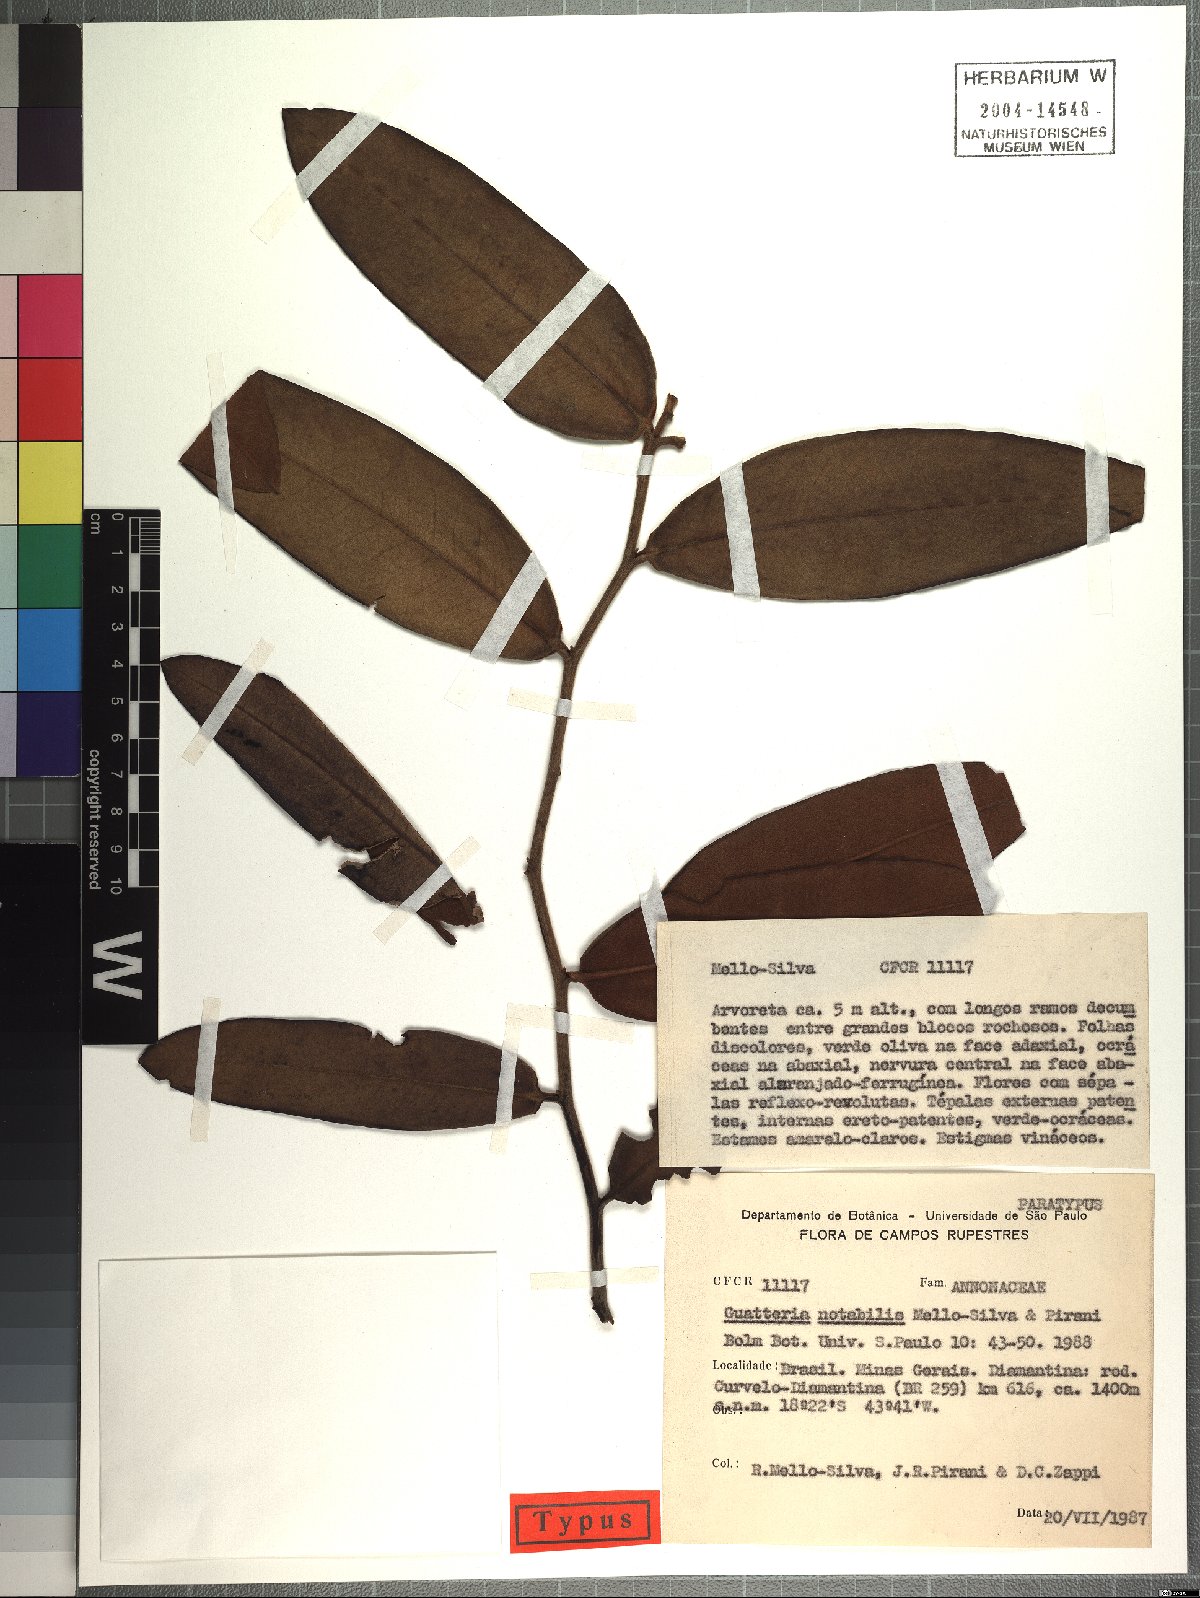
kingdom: Plantae
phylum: Tracheophyta
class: Magnoliopsida
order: Magnoliales
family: Annonaceae
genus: Guatteria
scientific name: Guatteria notabilis
